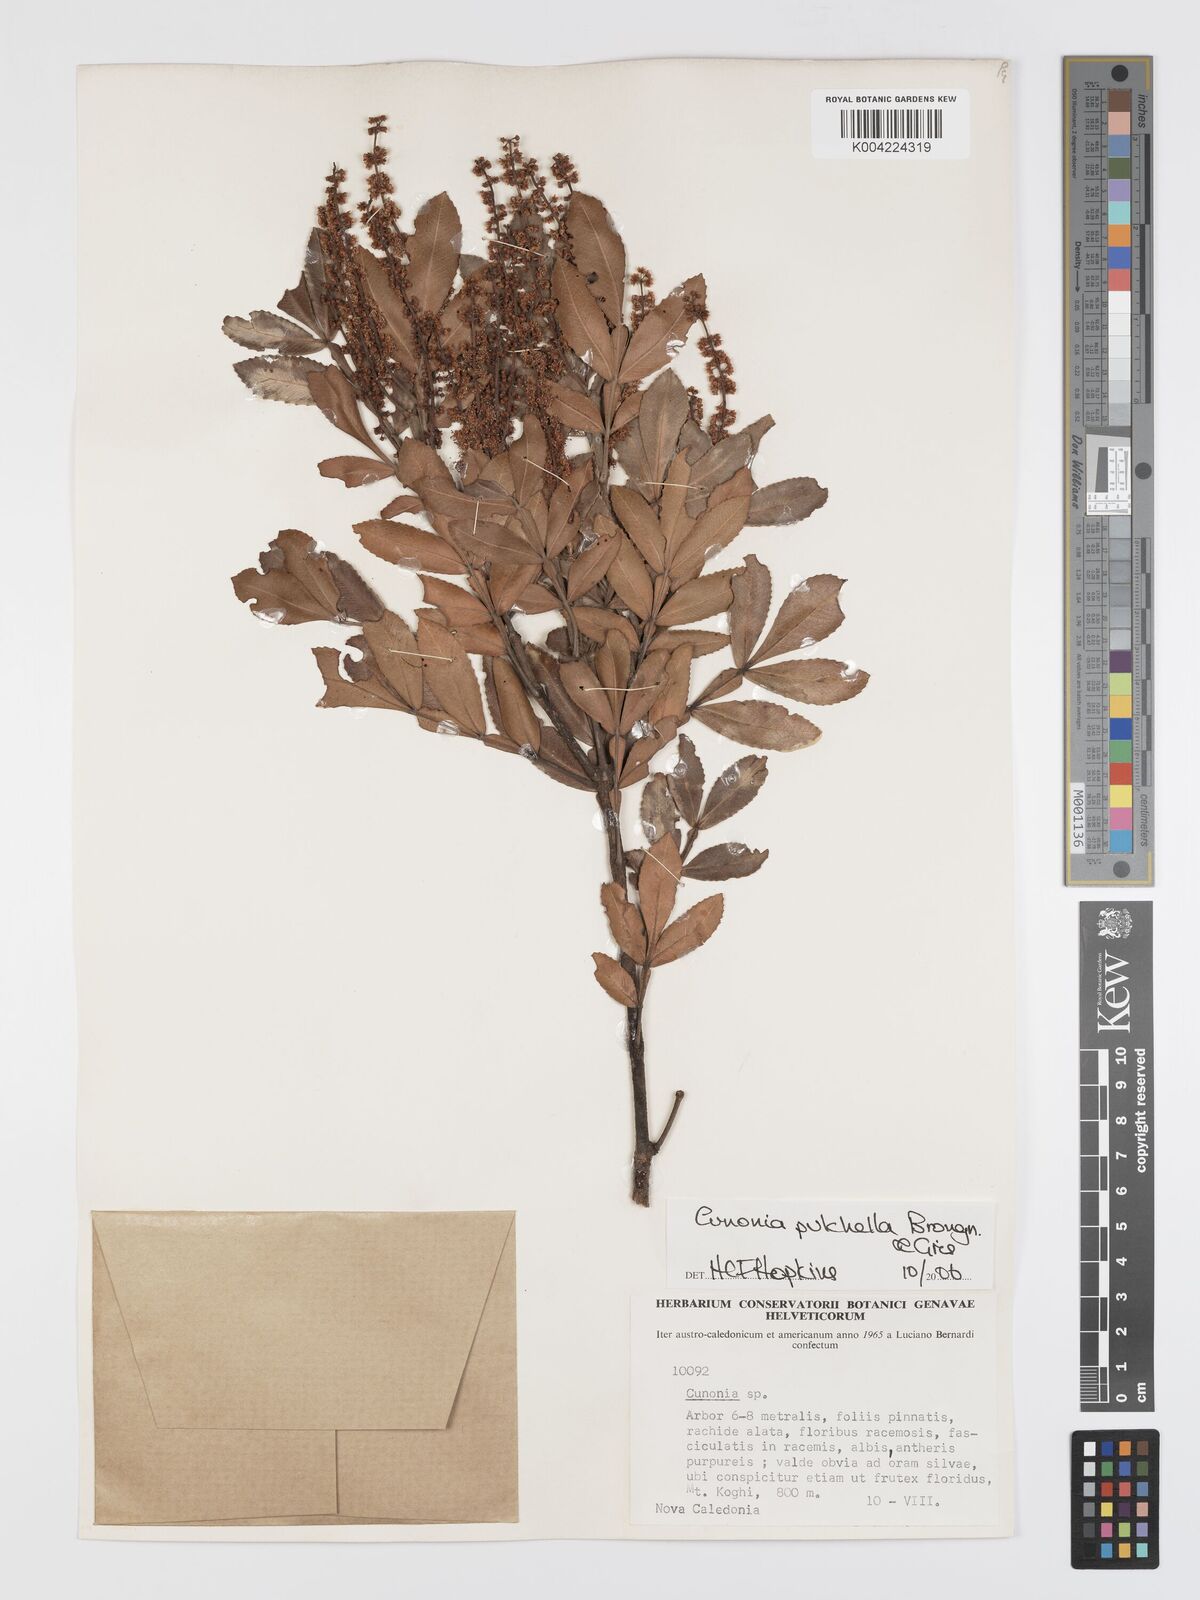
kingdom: Plantae
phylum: Tracheophyta
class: Magnoliopsida
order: Oxalidales
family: Cunoniaceae
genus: Cunonia
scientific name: Cunonia pulchella
